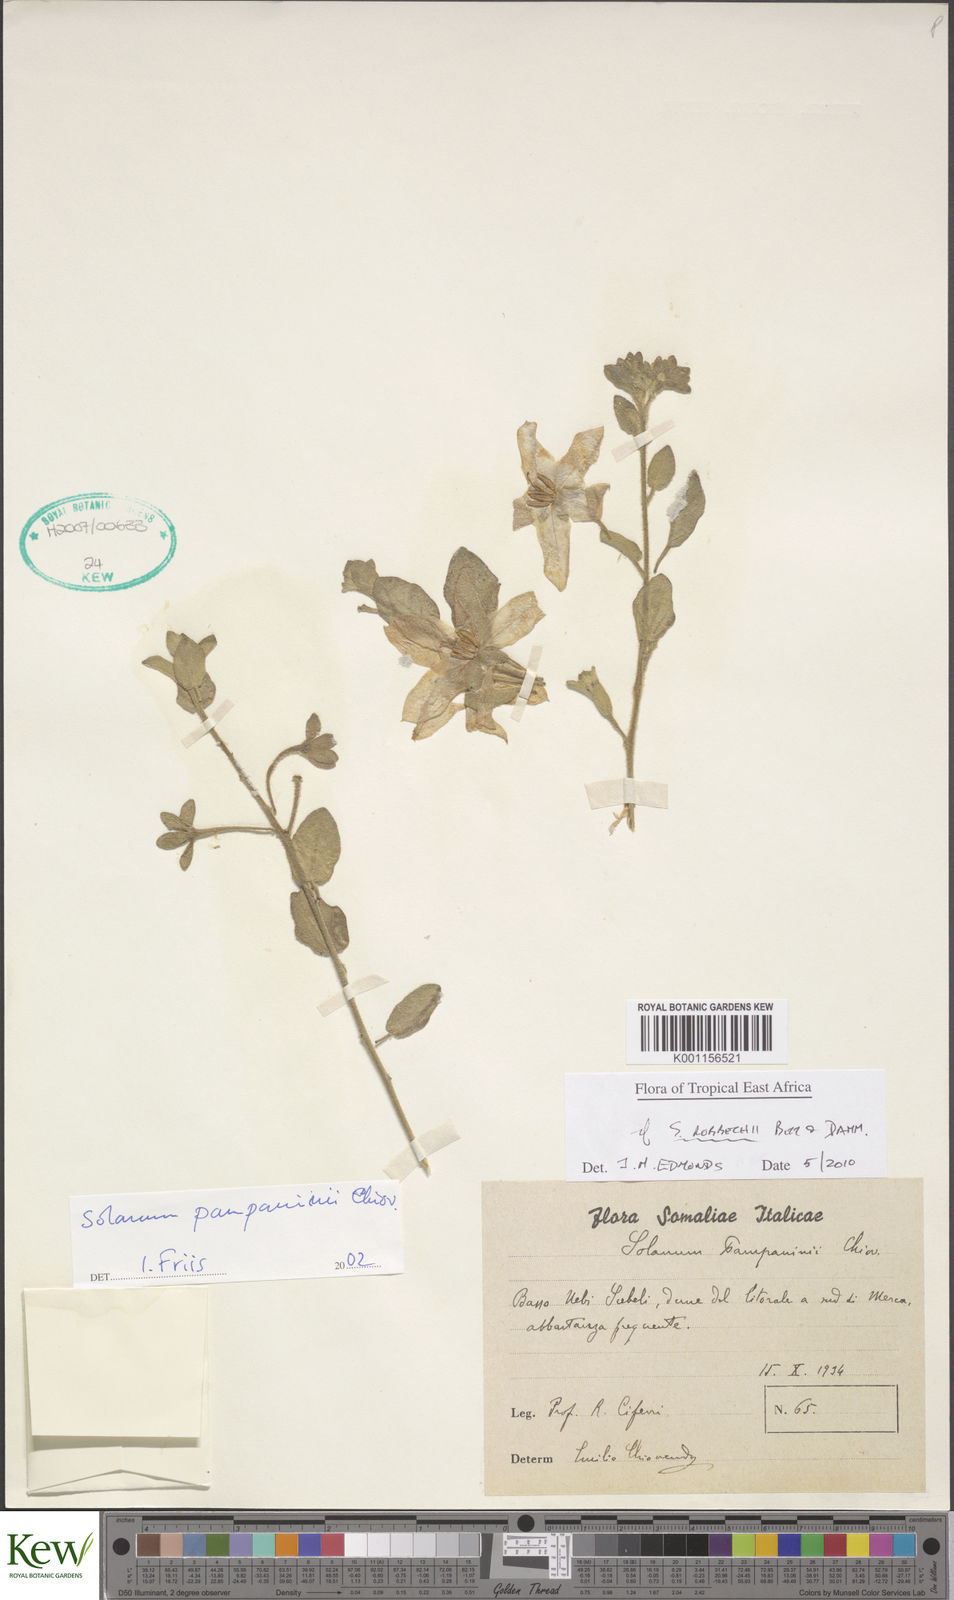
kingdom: Plantae
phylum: Tracheophyta
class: Magnoliopsida
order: Solanales
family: Solanaceae
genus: Solanum
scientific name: Solanum pampaninii
